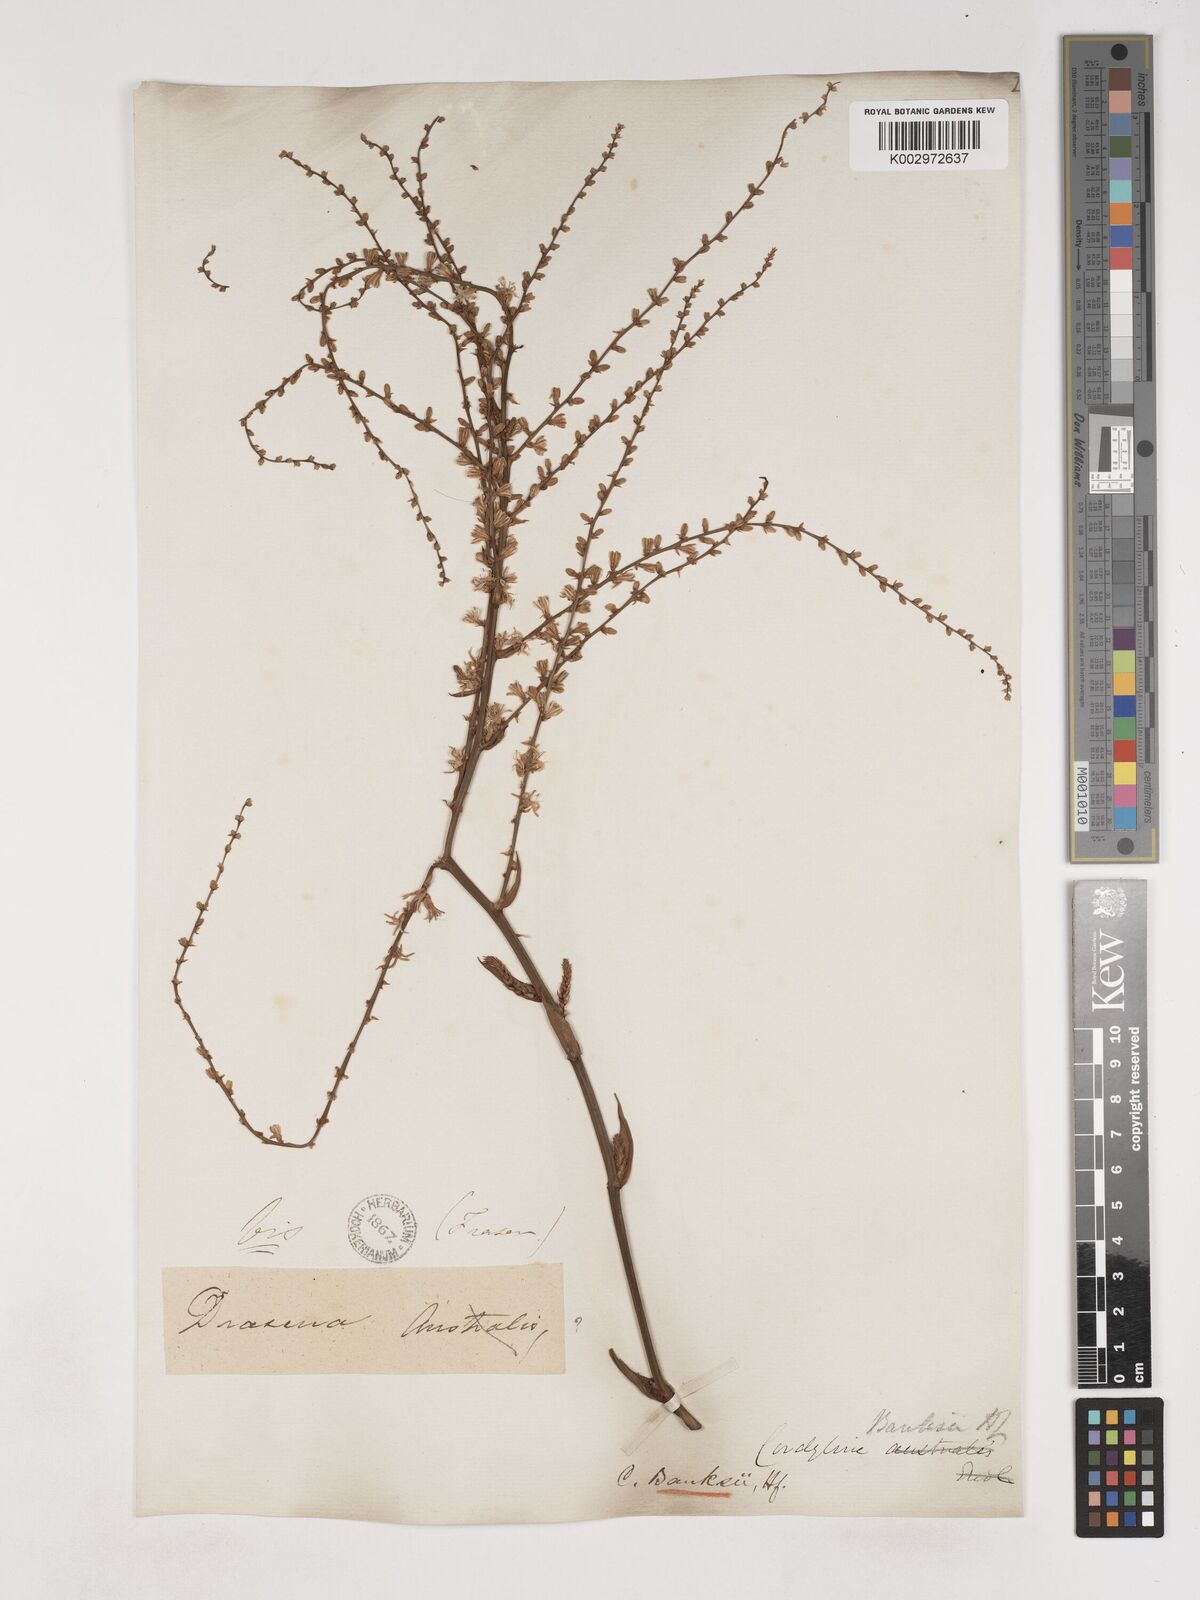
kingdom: Plantae
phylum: Tracheophyta
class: Liliopsida
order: Asparagales
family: Asparagaceae
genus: Cordyline
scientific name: Cordyline banksii
